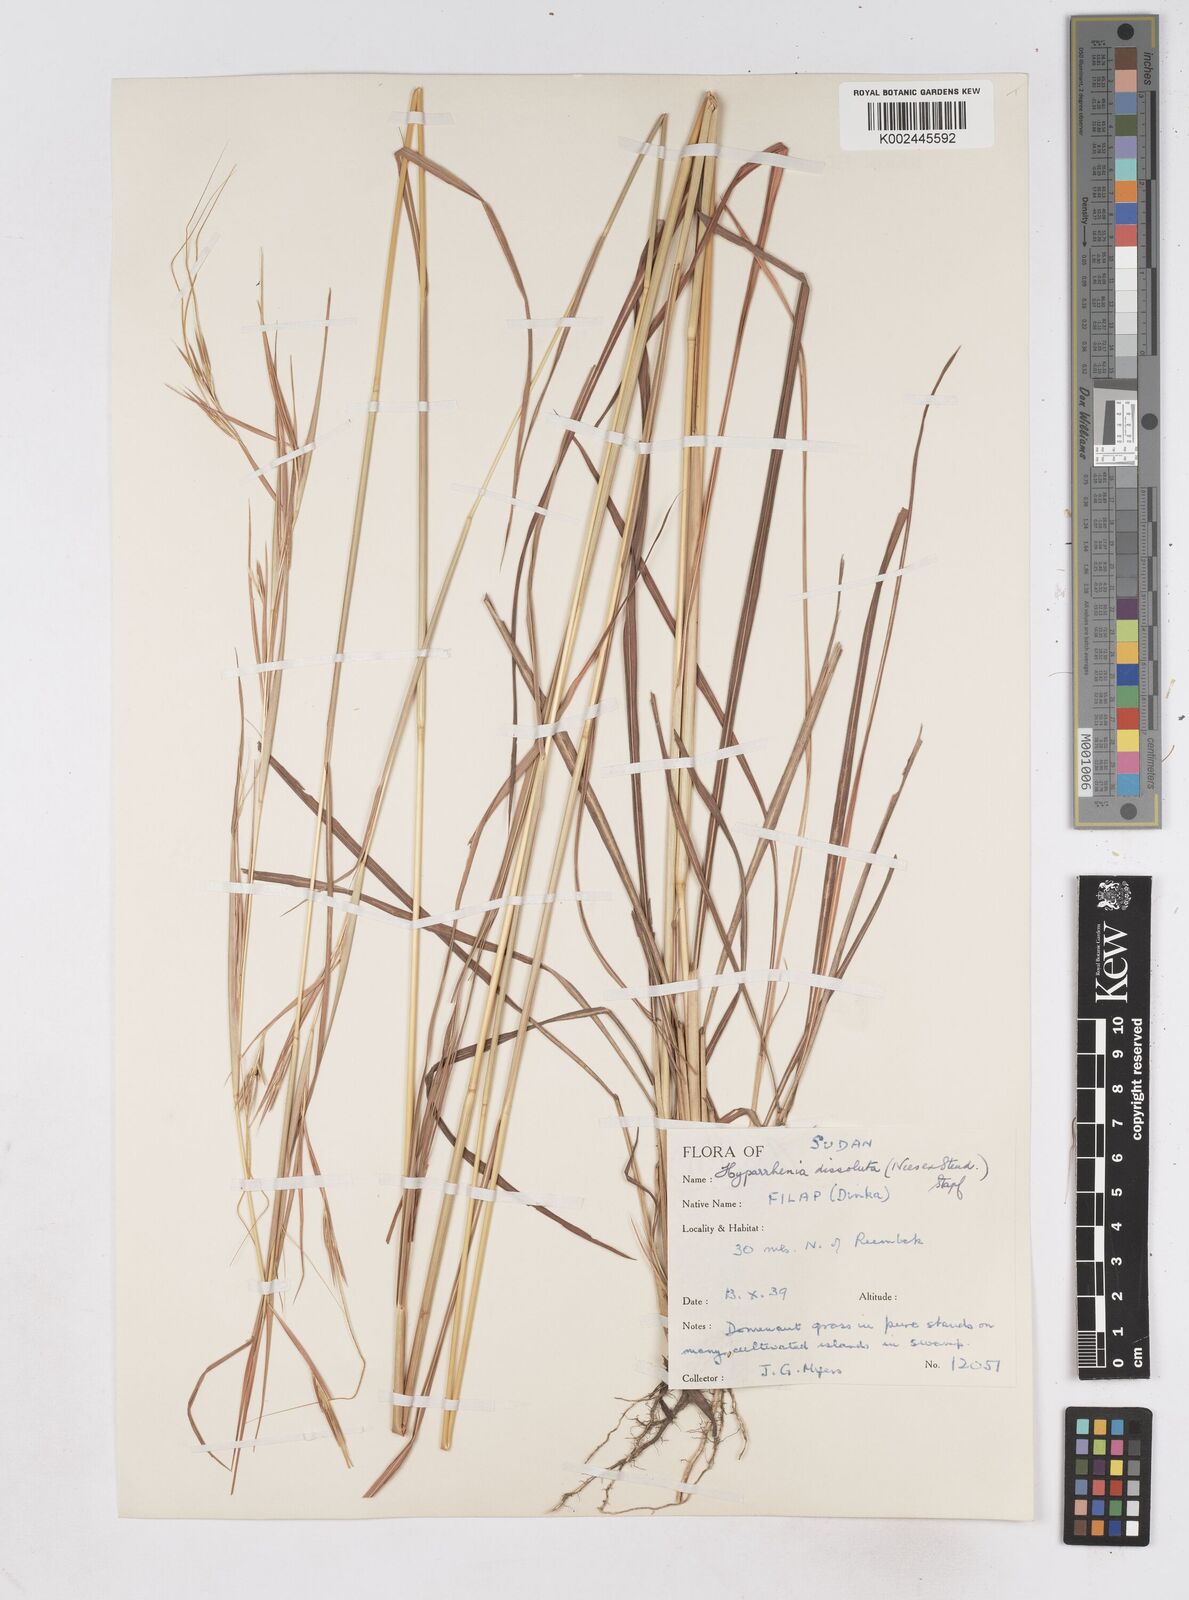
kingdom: Plantae
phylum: Tracheophyta
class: Liliopsida
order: Poales
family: Poaceae
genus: Hyperthelia
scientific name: Hyperthelia dissoluta
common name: Yellow thatching grass
